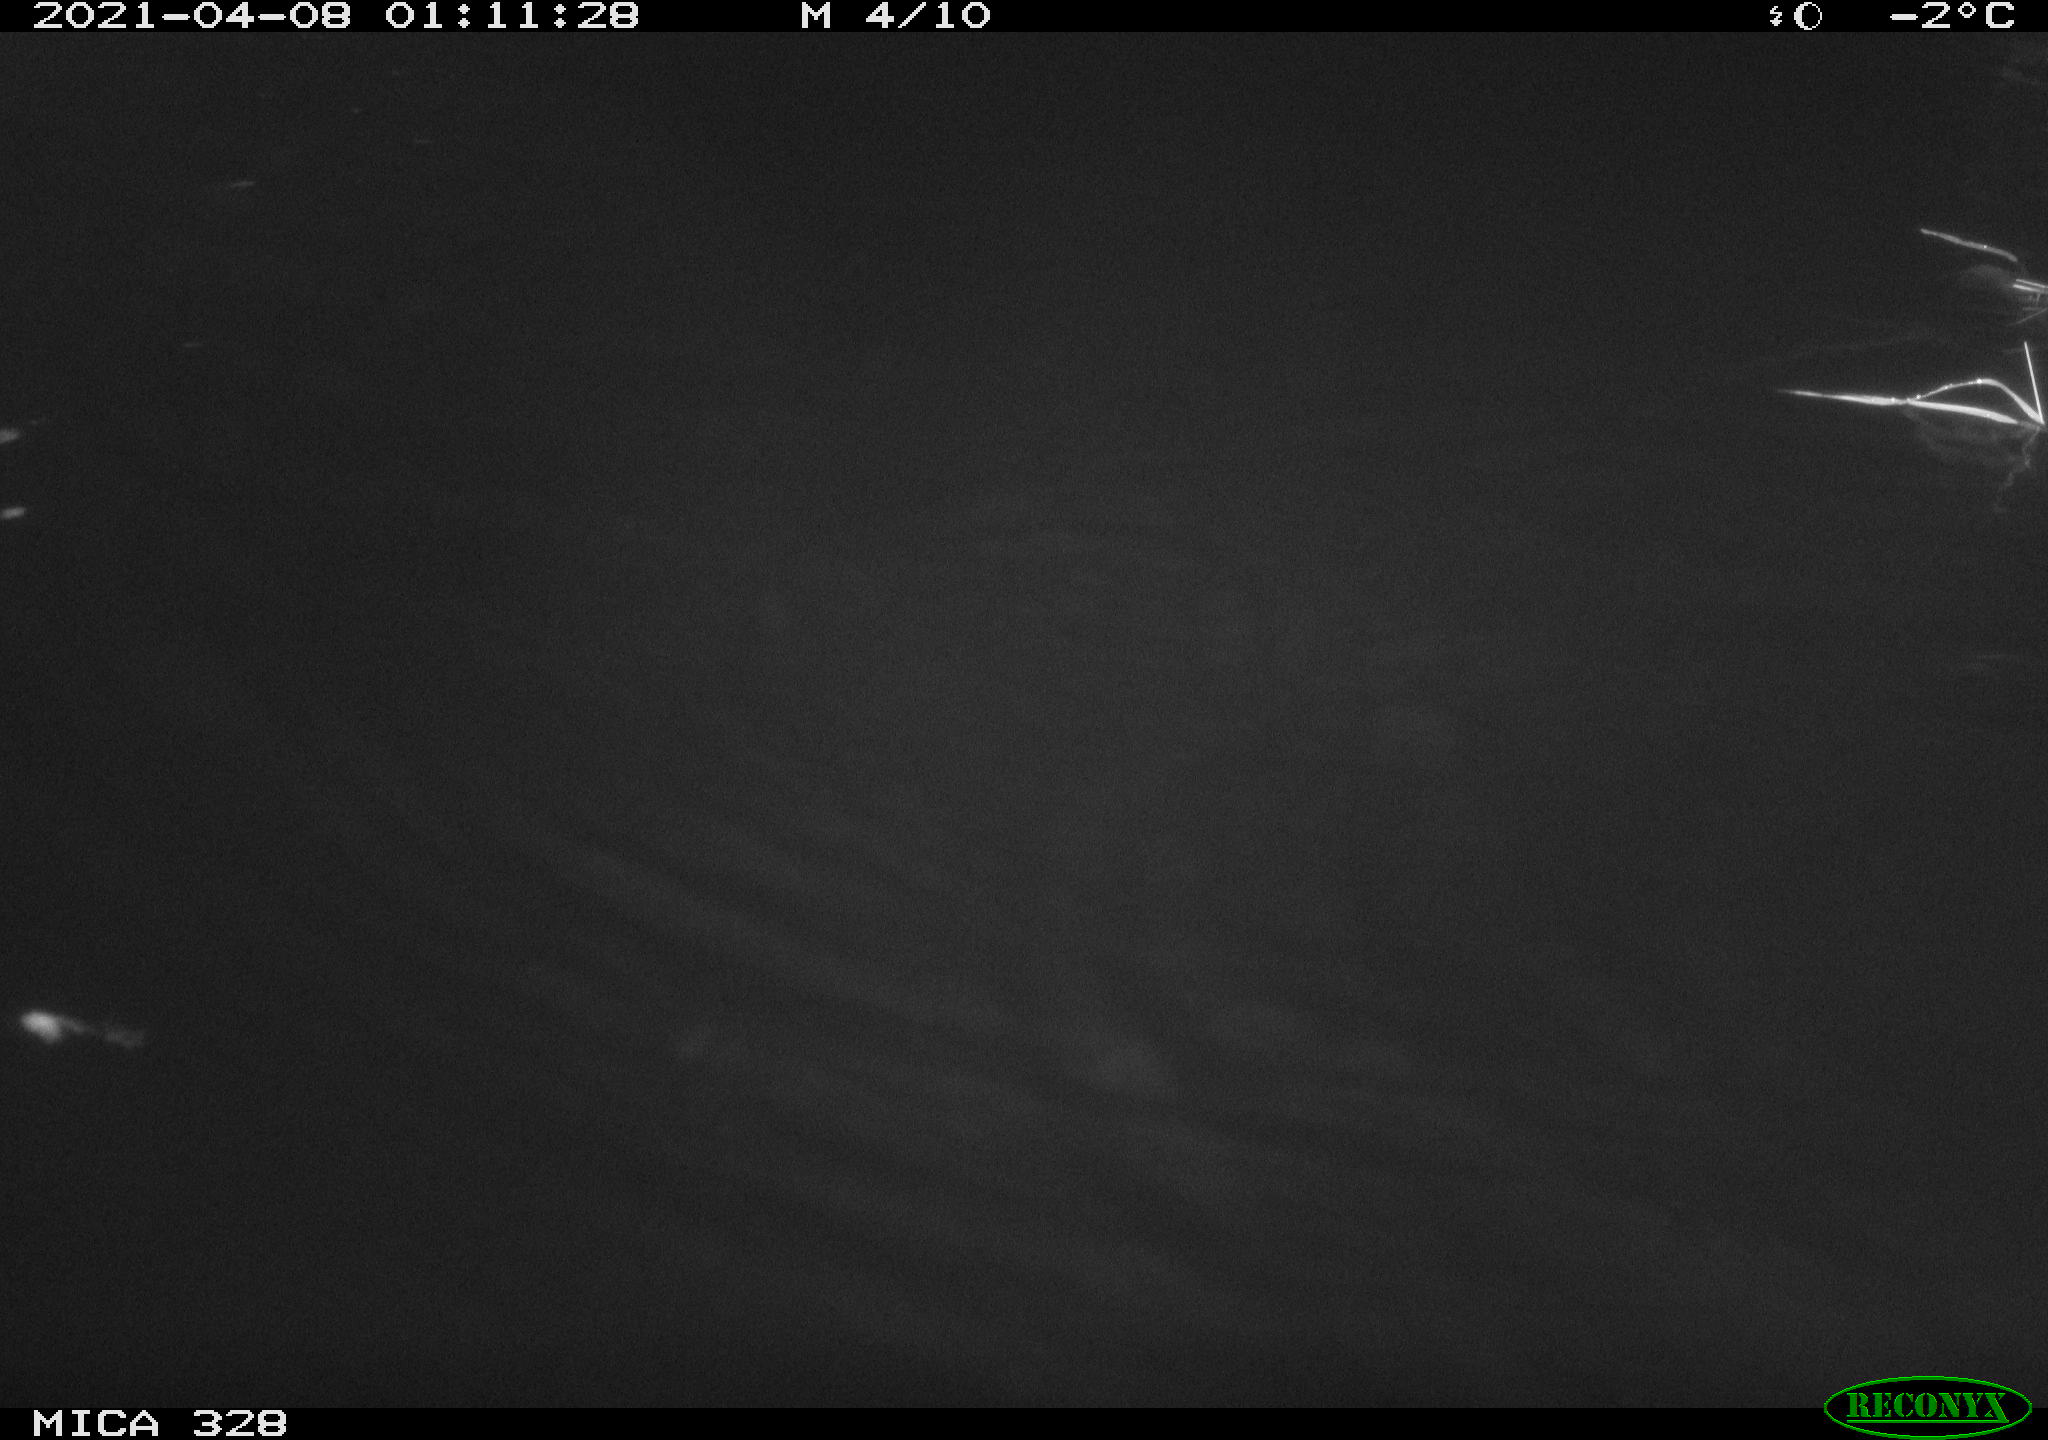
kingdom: Animalia
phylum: Chordata
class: Mammalia
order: Rodentia
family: Cricetidae
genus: Ondatra
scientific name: Ondatra zibethicus
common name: Muskrat
